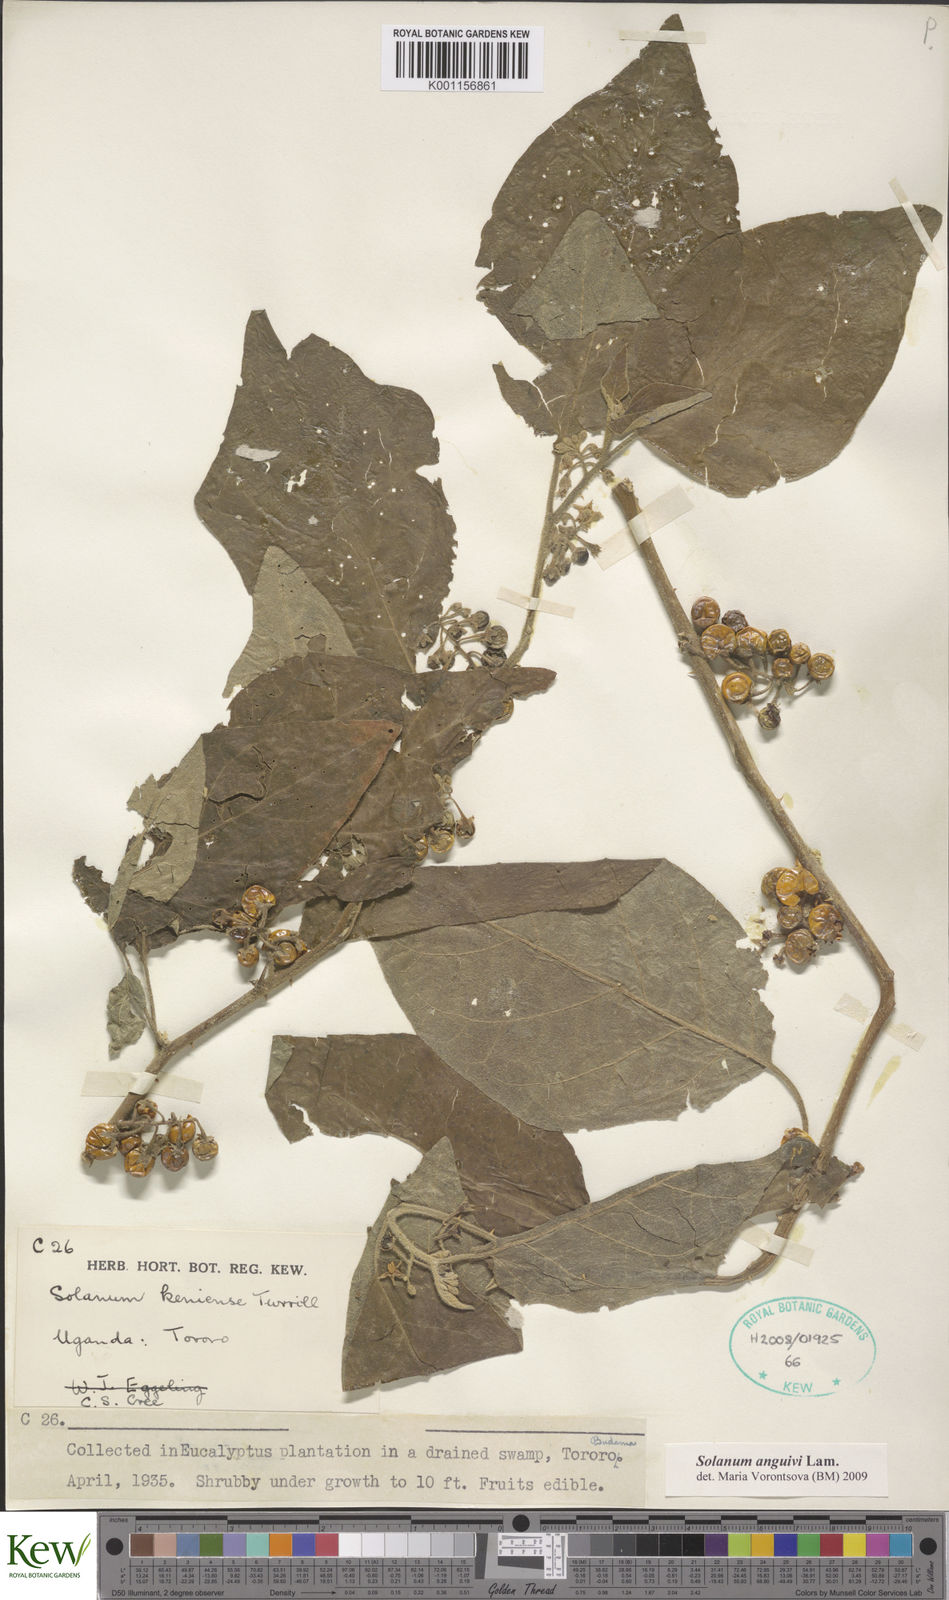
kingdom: Plantae
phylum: Tracheophyta
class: Magnoliopsida
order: Solanales
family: Solanaceae
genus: Solanum
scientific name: Solanum anguivi
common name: Forest bitterberry
